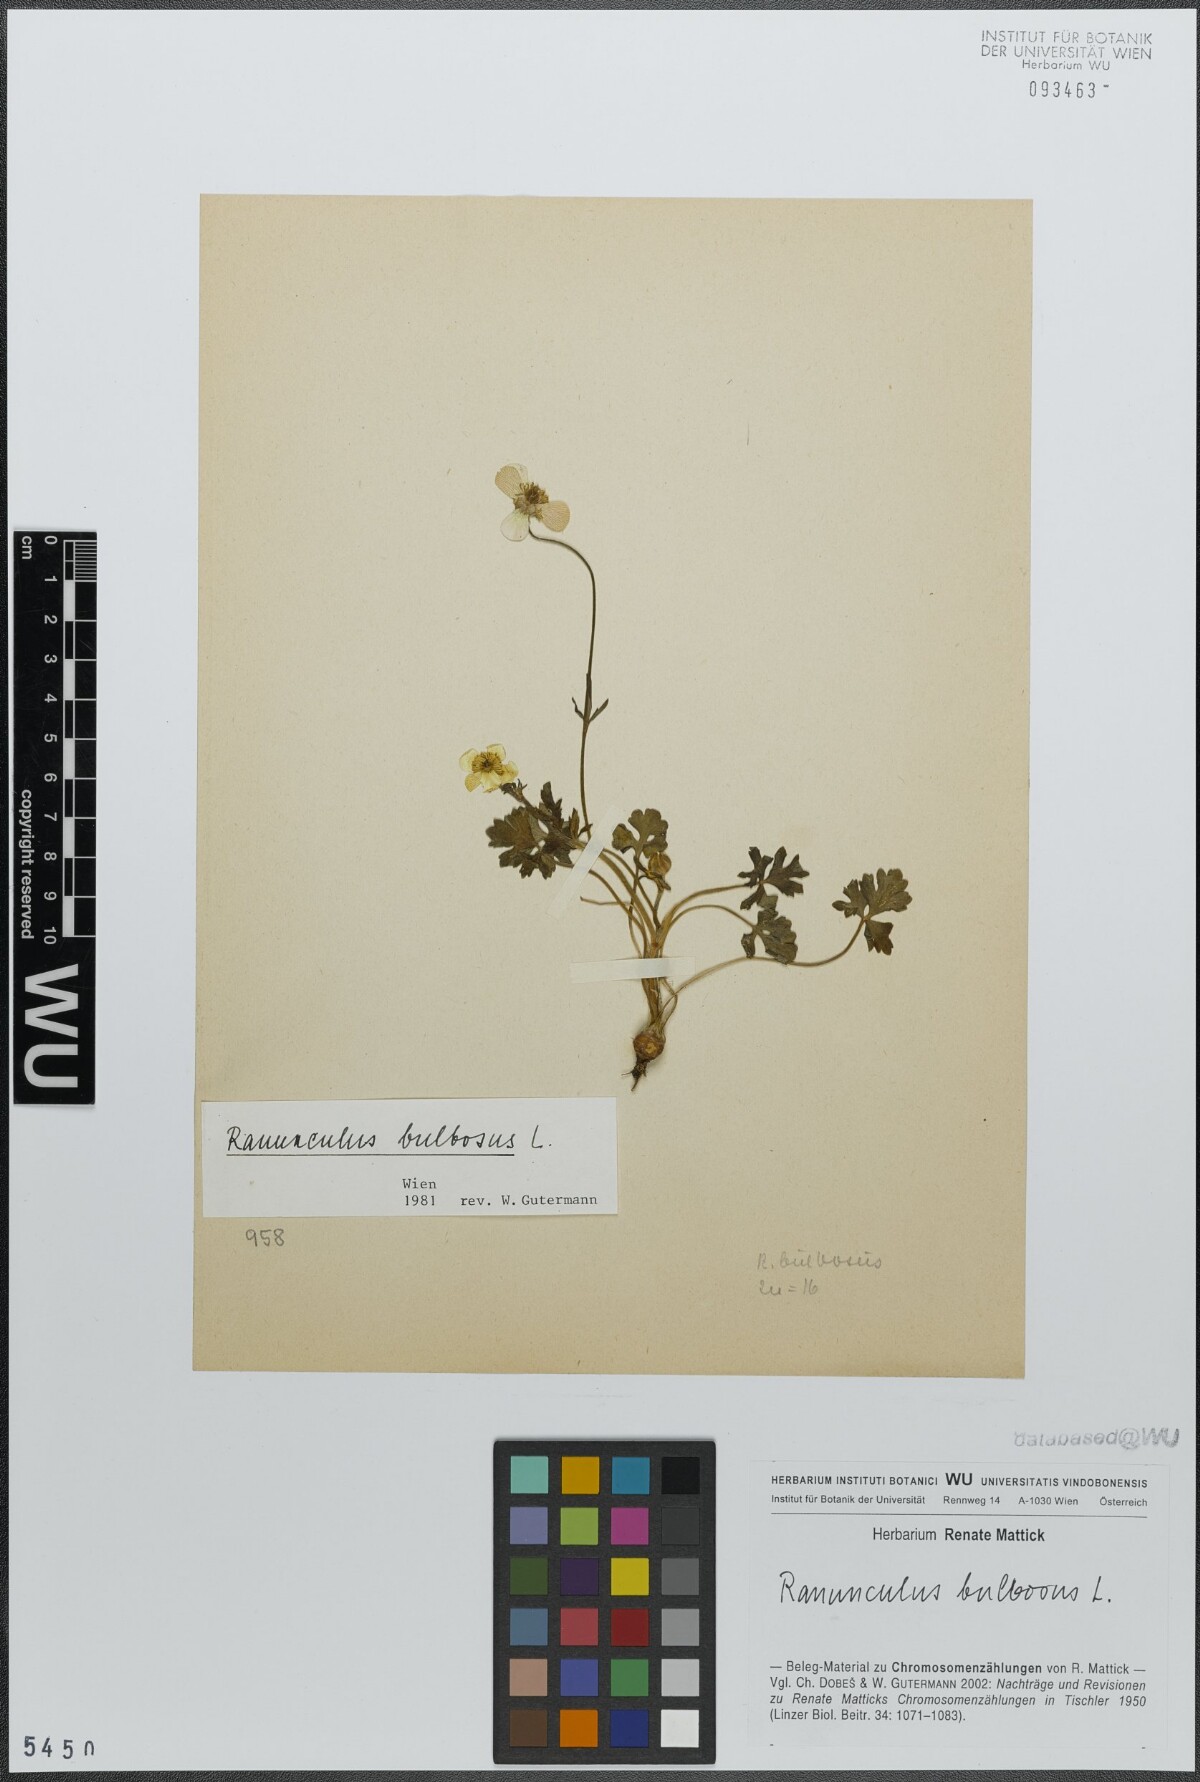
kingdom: Plantae
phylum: Tracheophyta
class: Magnoliopsida
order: Ranunculales
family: Ranunculaceae
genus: Ranunculus
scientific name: Ranunculus bulbosus
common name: Bulbous buttercup
